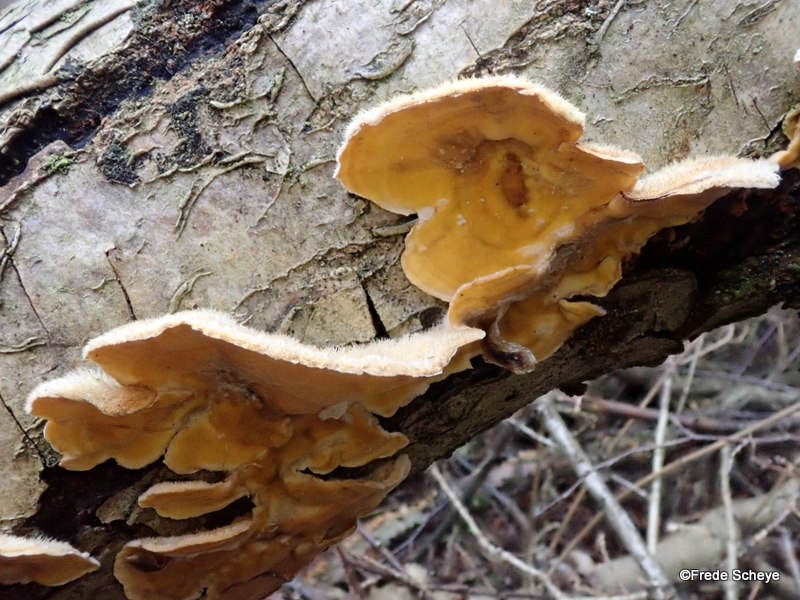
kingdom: Fungi
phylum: Basidiomycota
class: Agaricomycetes
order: Russulales
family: Stereaceae
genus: Stereum
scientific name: Stereum hirsutum
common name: håret lædersvamp
